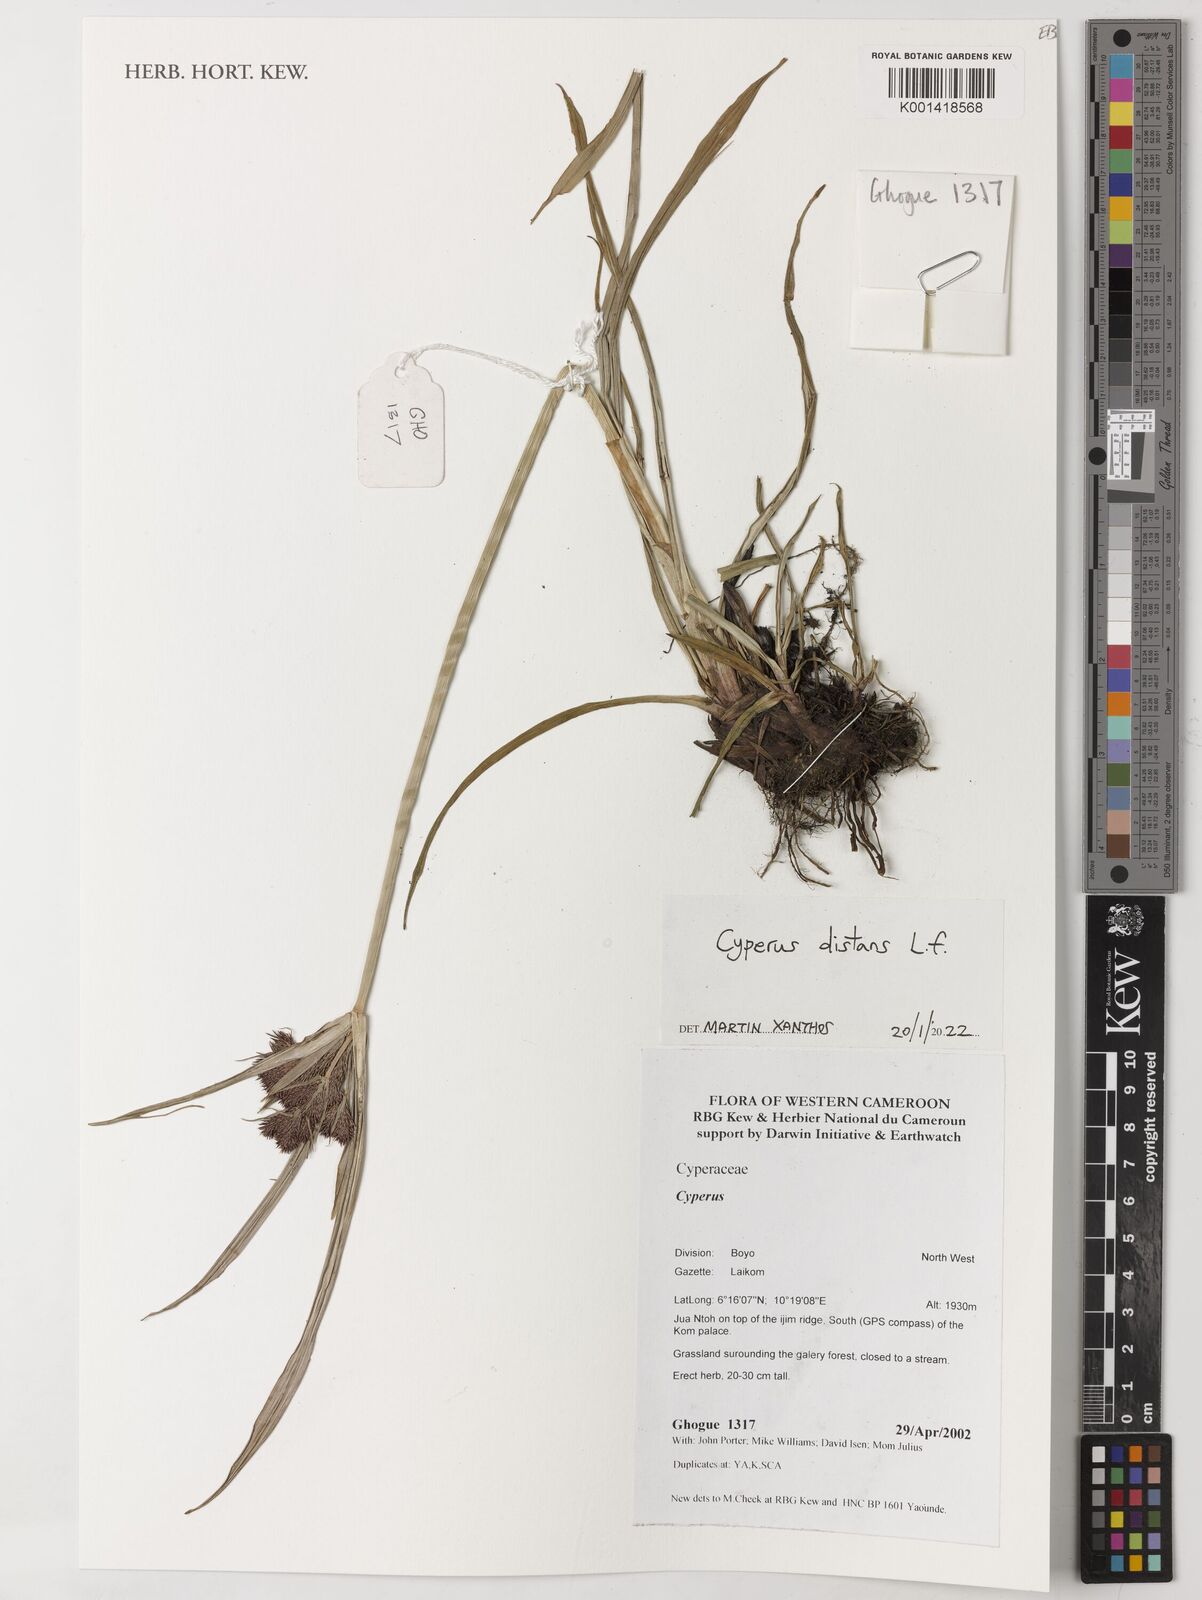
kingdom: Plantae
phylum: Tracheophyta
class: Liliopsida
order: Poales
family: Cyperaceae
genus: Cyperus
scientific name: Cyperus distans
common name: Slender cyperus
